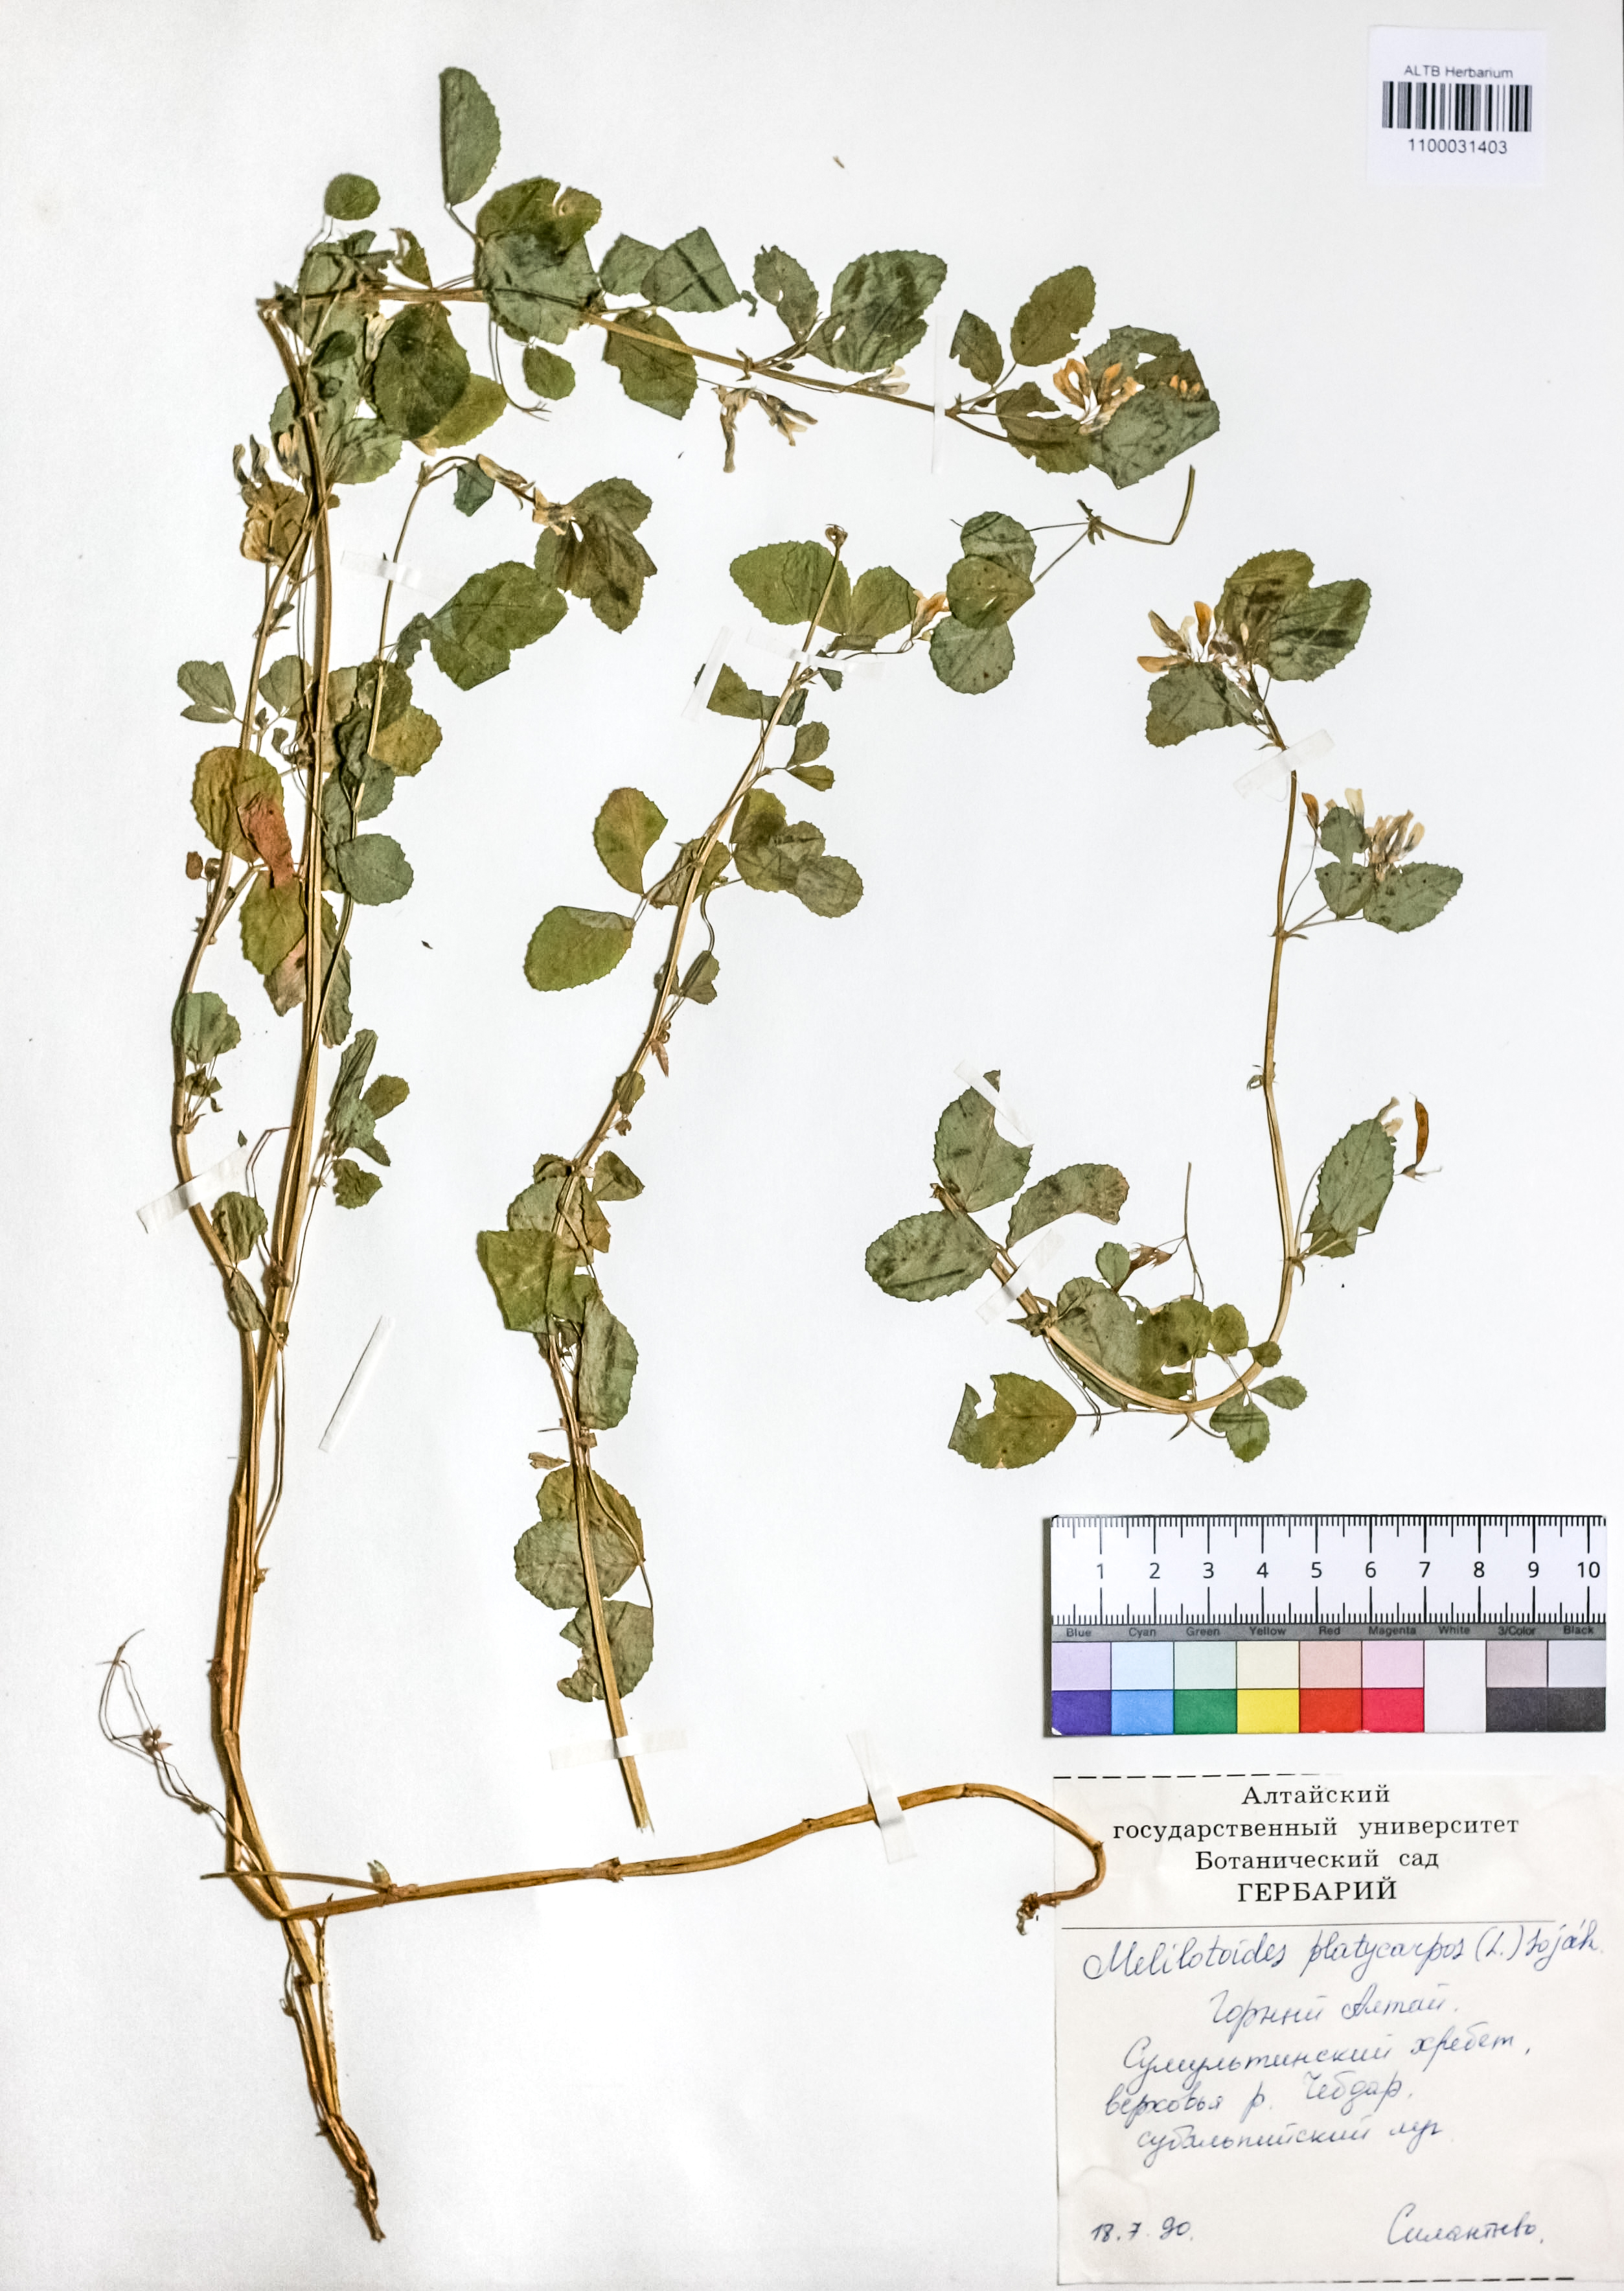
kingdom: Plantae
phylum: Tracheophyta
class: Magnoliopsida
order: Fabales
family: Fabaceae
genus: Medicago
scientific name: Medicago platycarpos
